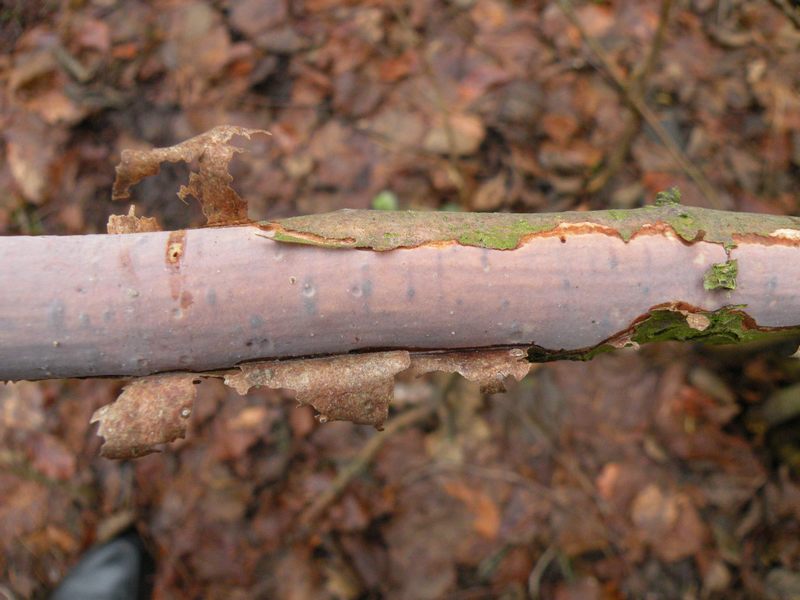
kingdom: Fungi
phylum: Basidiomycota
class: Agaricomycetes
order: Corticiales
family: Vuilleminiaceae
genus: Vuilleminia
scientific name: Vuilleminia comedens
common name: almindelig barksprænger
